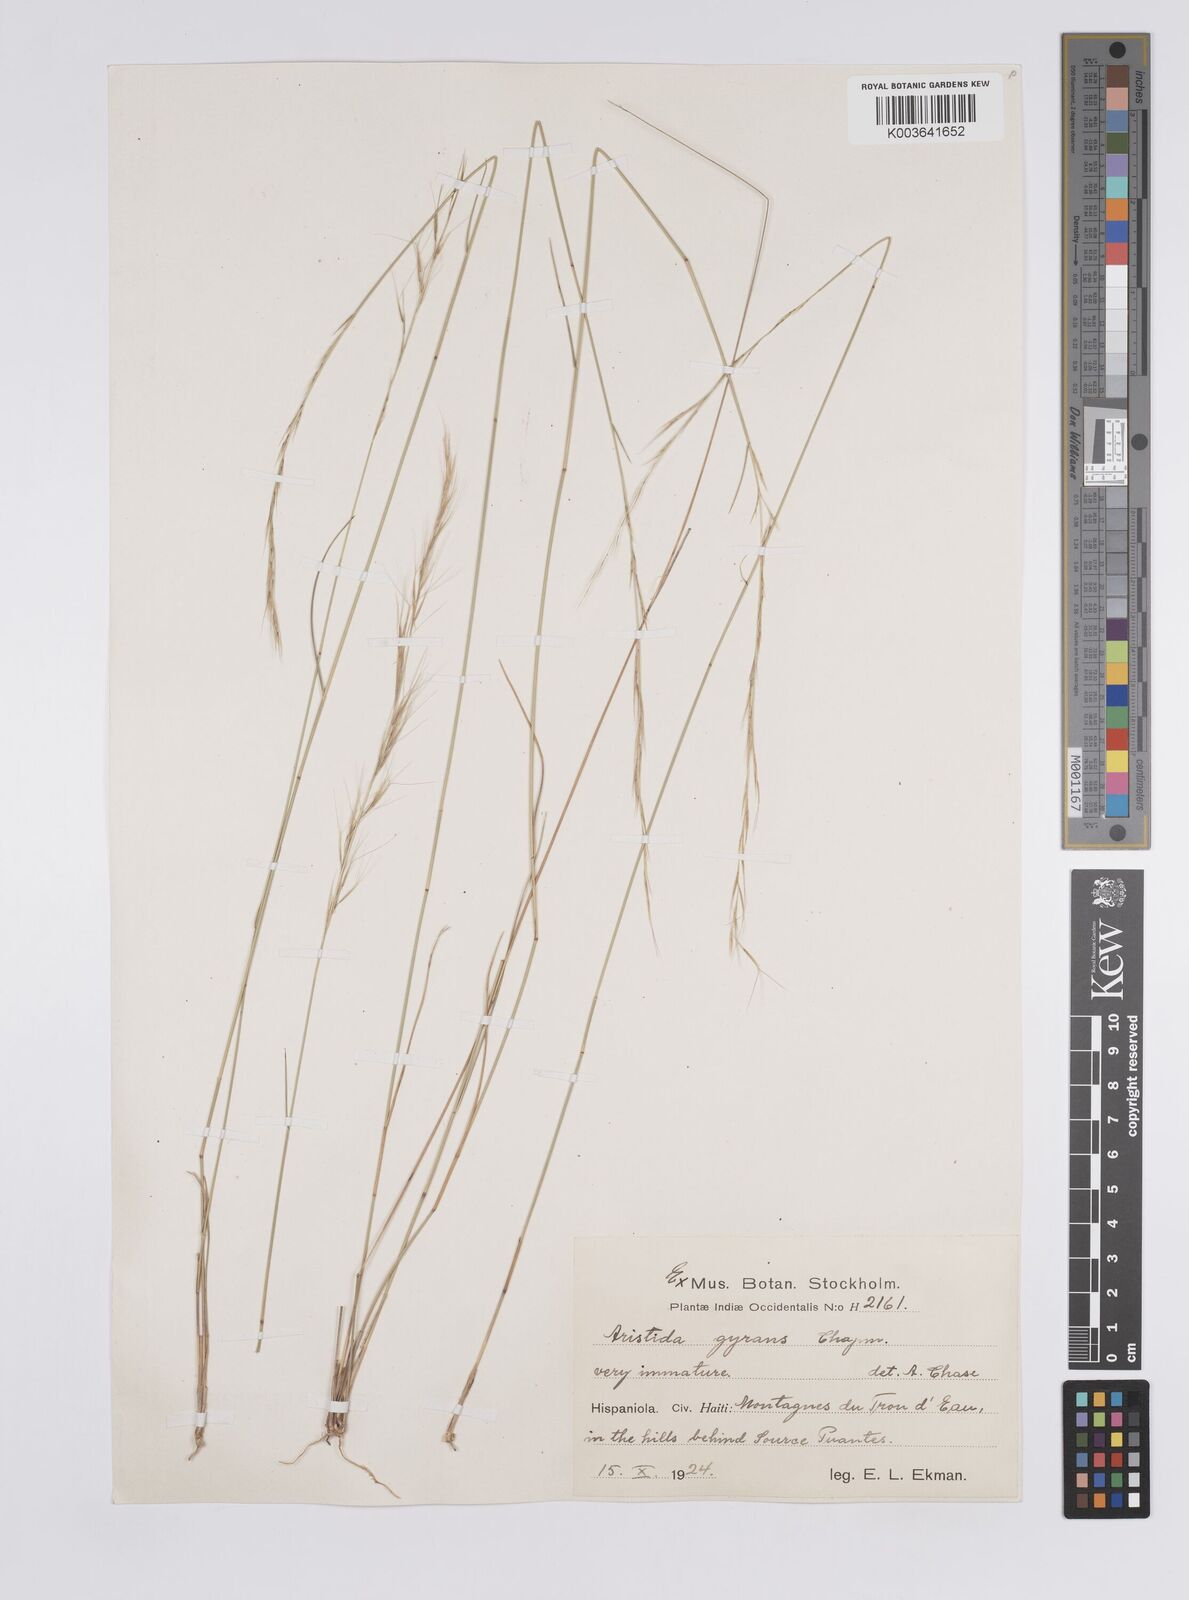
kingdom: Plantae
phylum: Tracheophyta
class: Liliopsida
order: Poales
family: Poaceae
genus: Aristida
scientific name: Aristida vilfifolia
